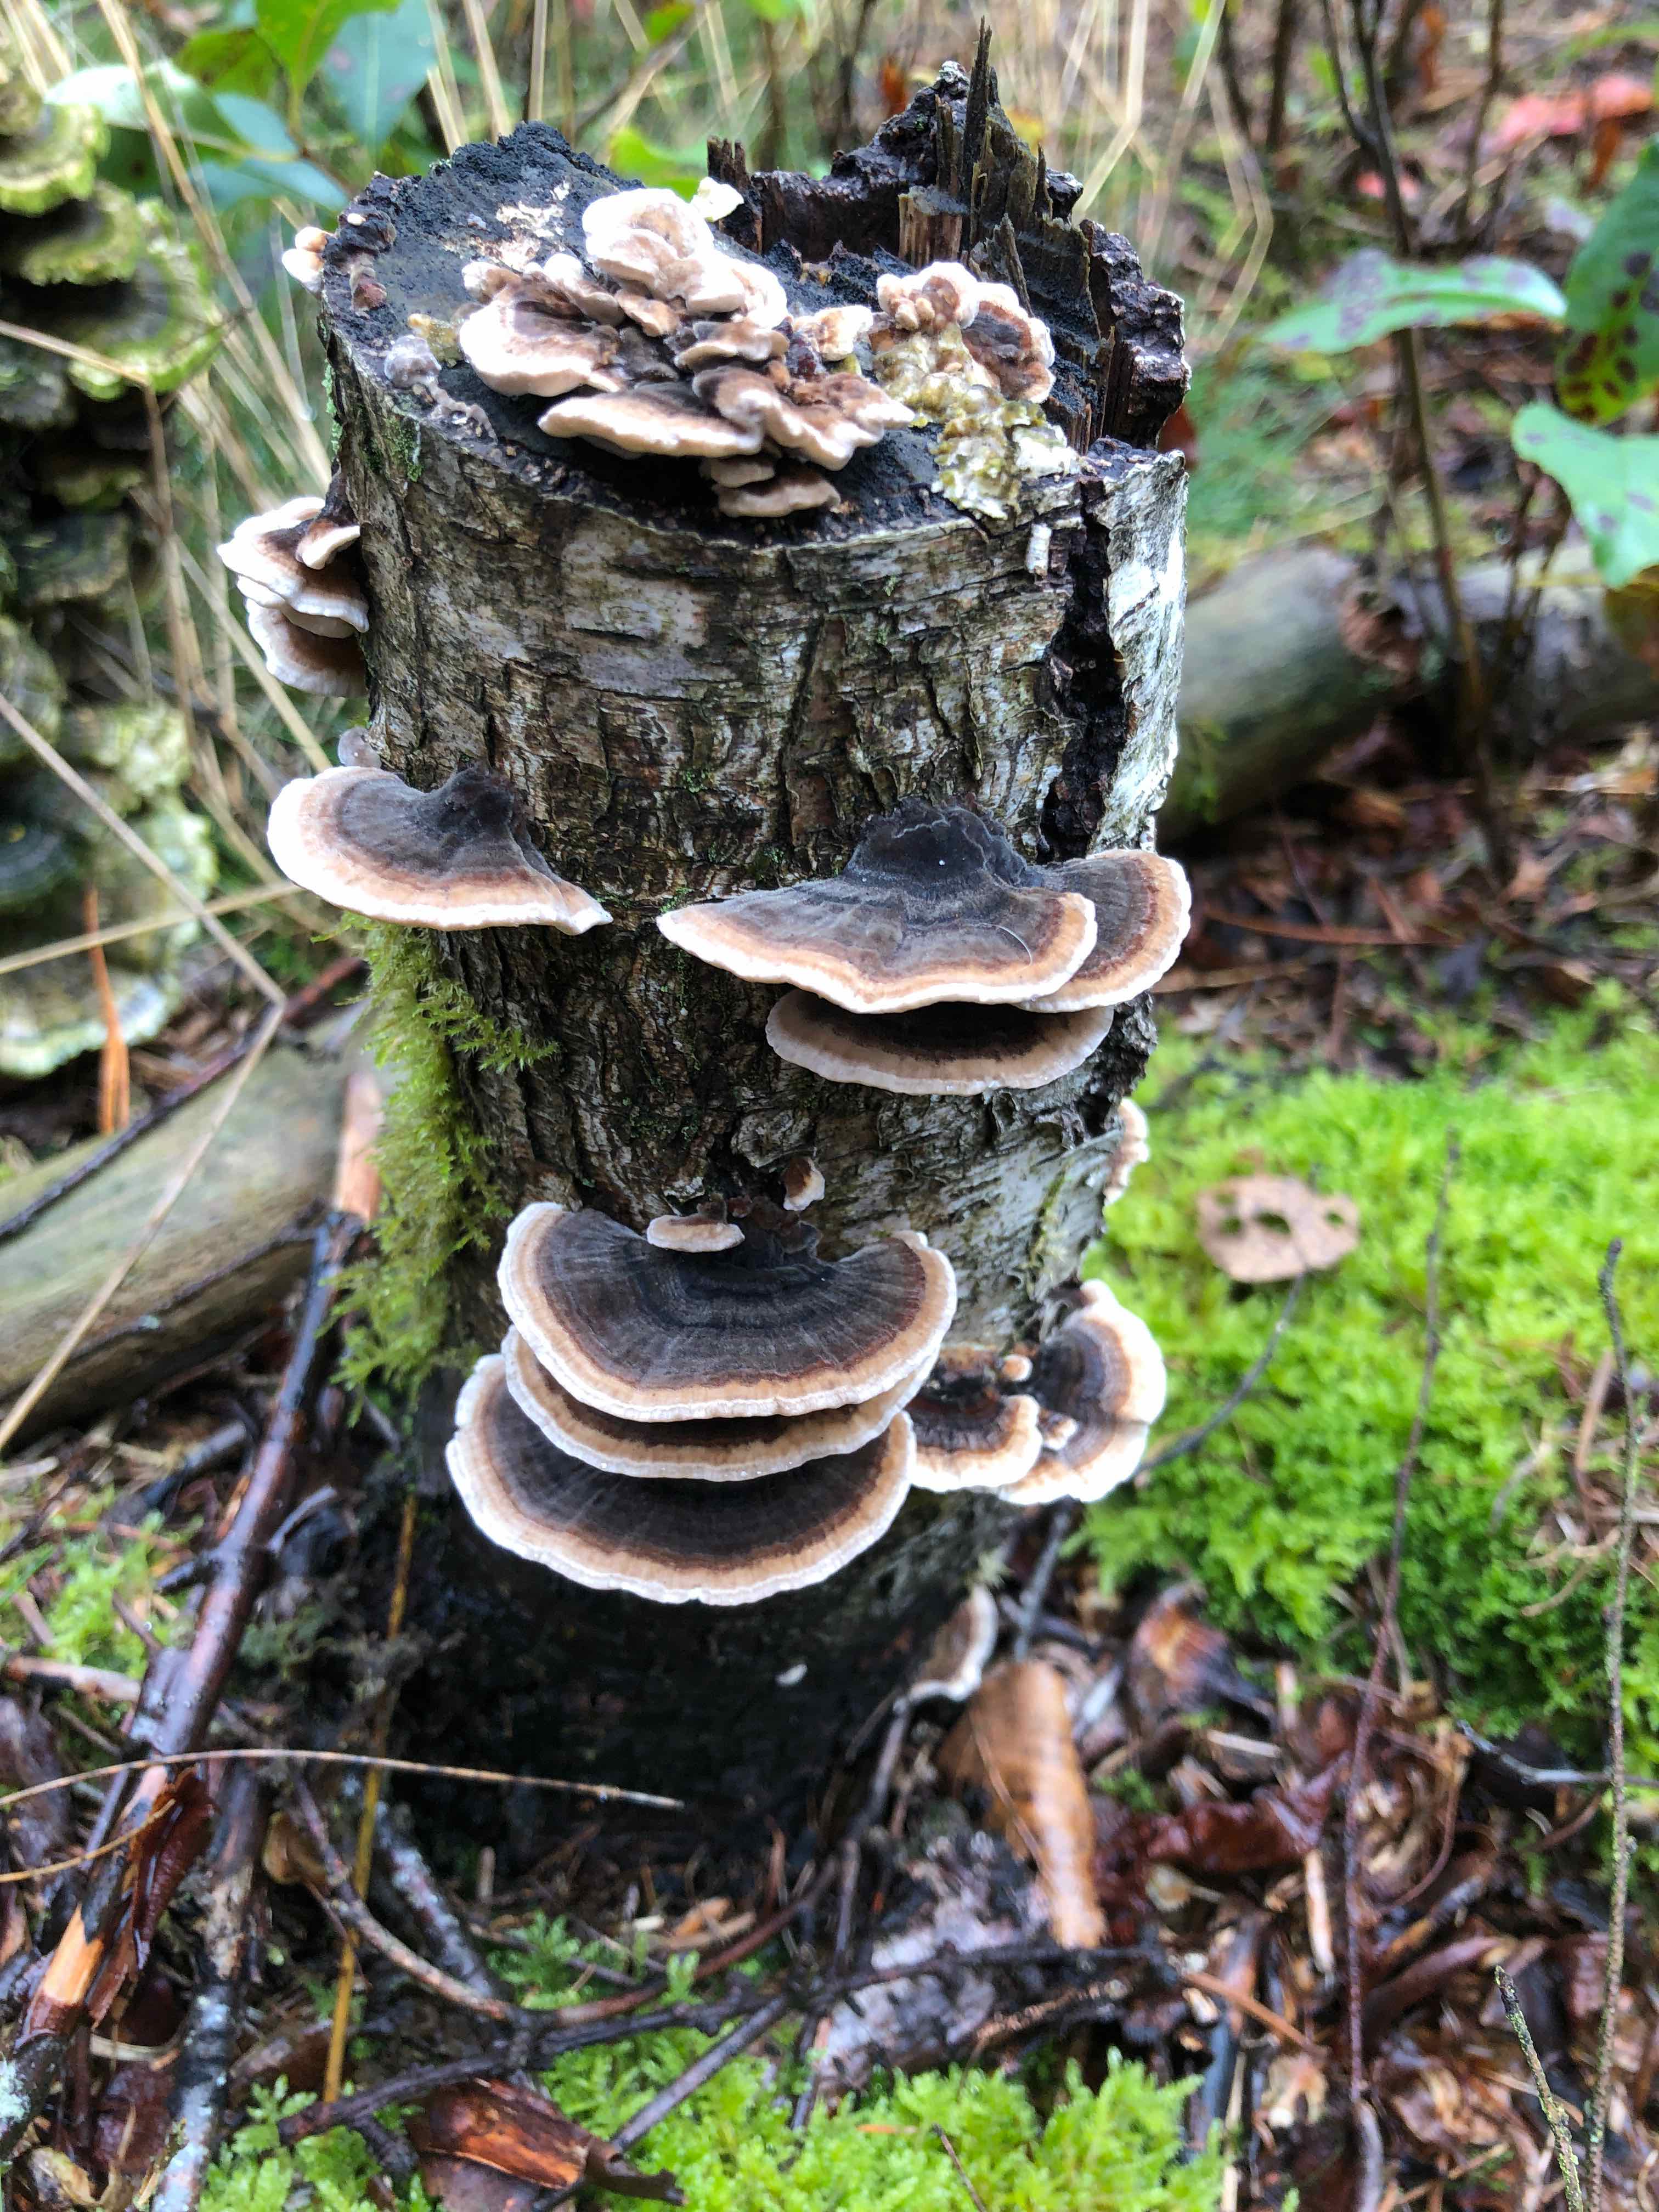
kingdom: Fungi
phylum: Basidiomycota
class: Agaricomycetes
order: Polyporales
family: Polyporaceae
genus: Trametes
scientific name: Trametes versicolor
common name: broget læderporesvamp
